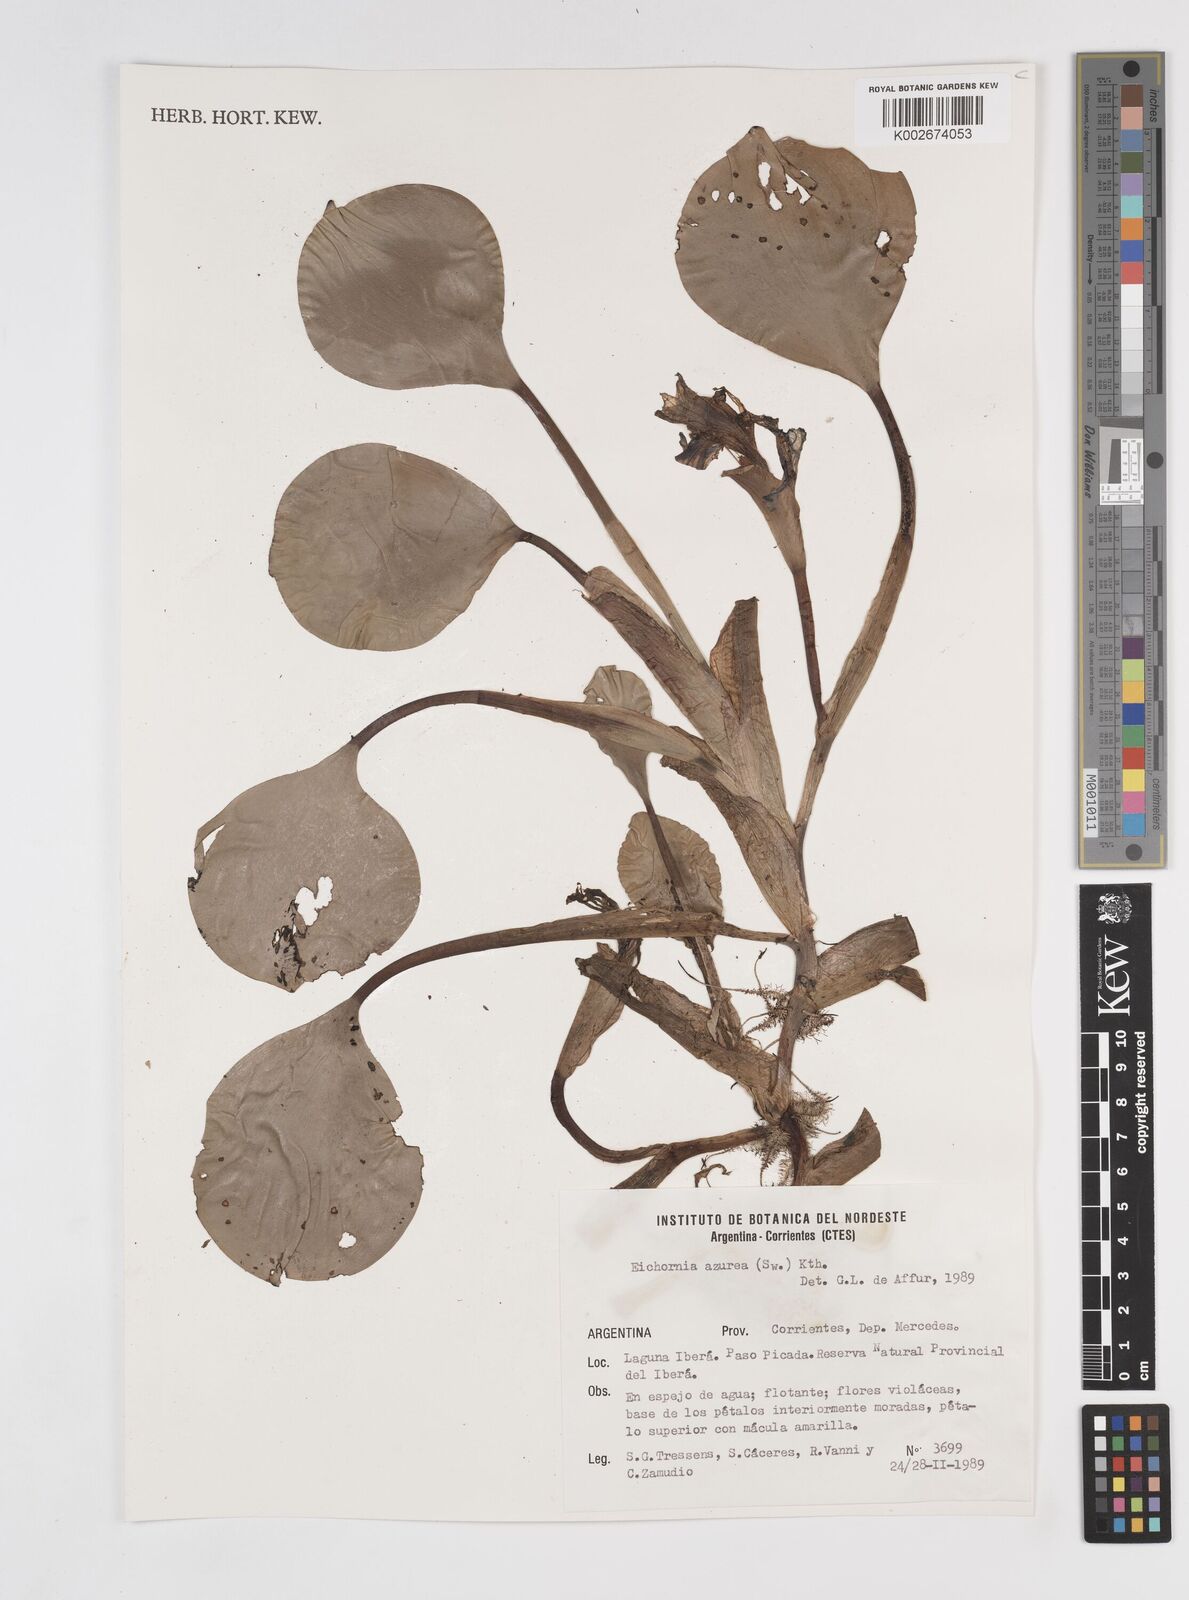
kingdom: Plantae
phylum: Tracheophyta
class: Liliopsida
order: Commelinales
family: Pontederiaceae
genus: Pontederia
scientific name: Pontederia azurea
